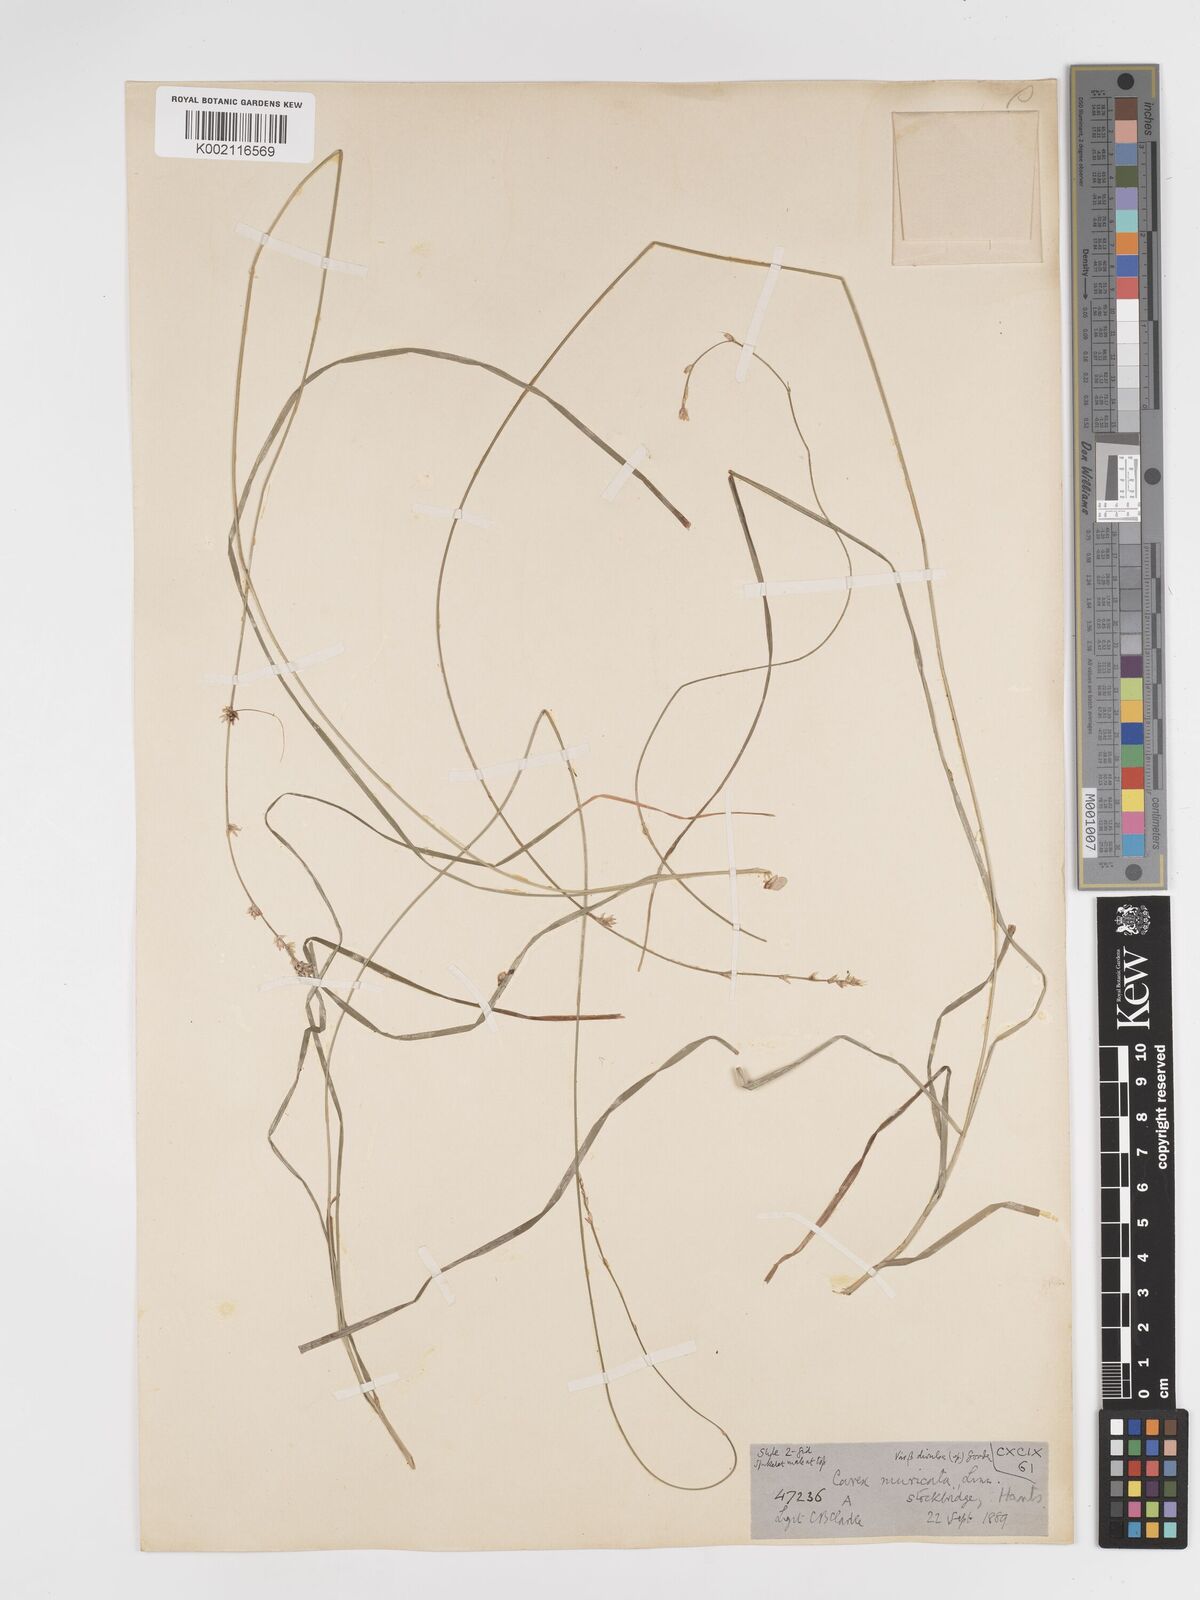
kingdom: Plantae
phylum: Tracheophyta
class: Liliopsida
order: Poales
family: Cyperaceae
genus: Carex
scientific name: Carex divulsa
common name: Grassland sedge
